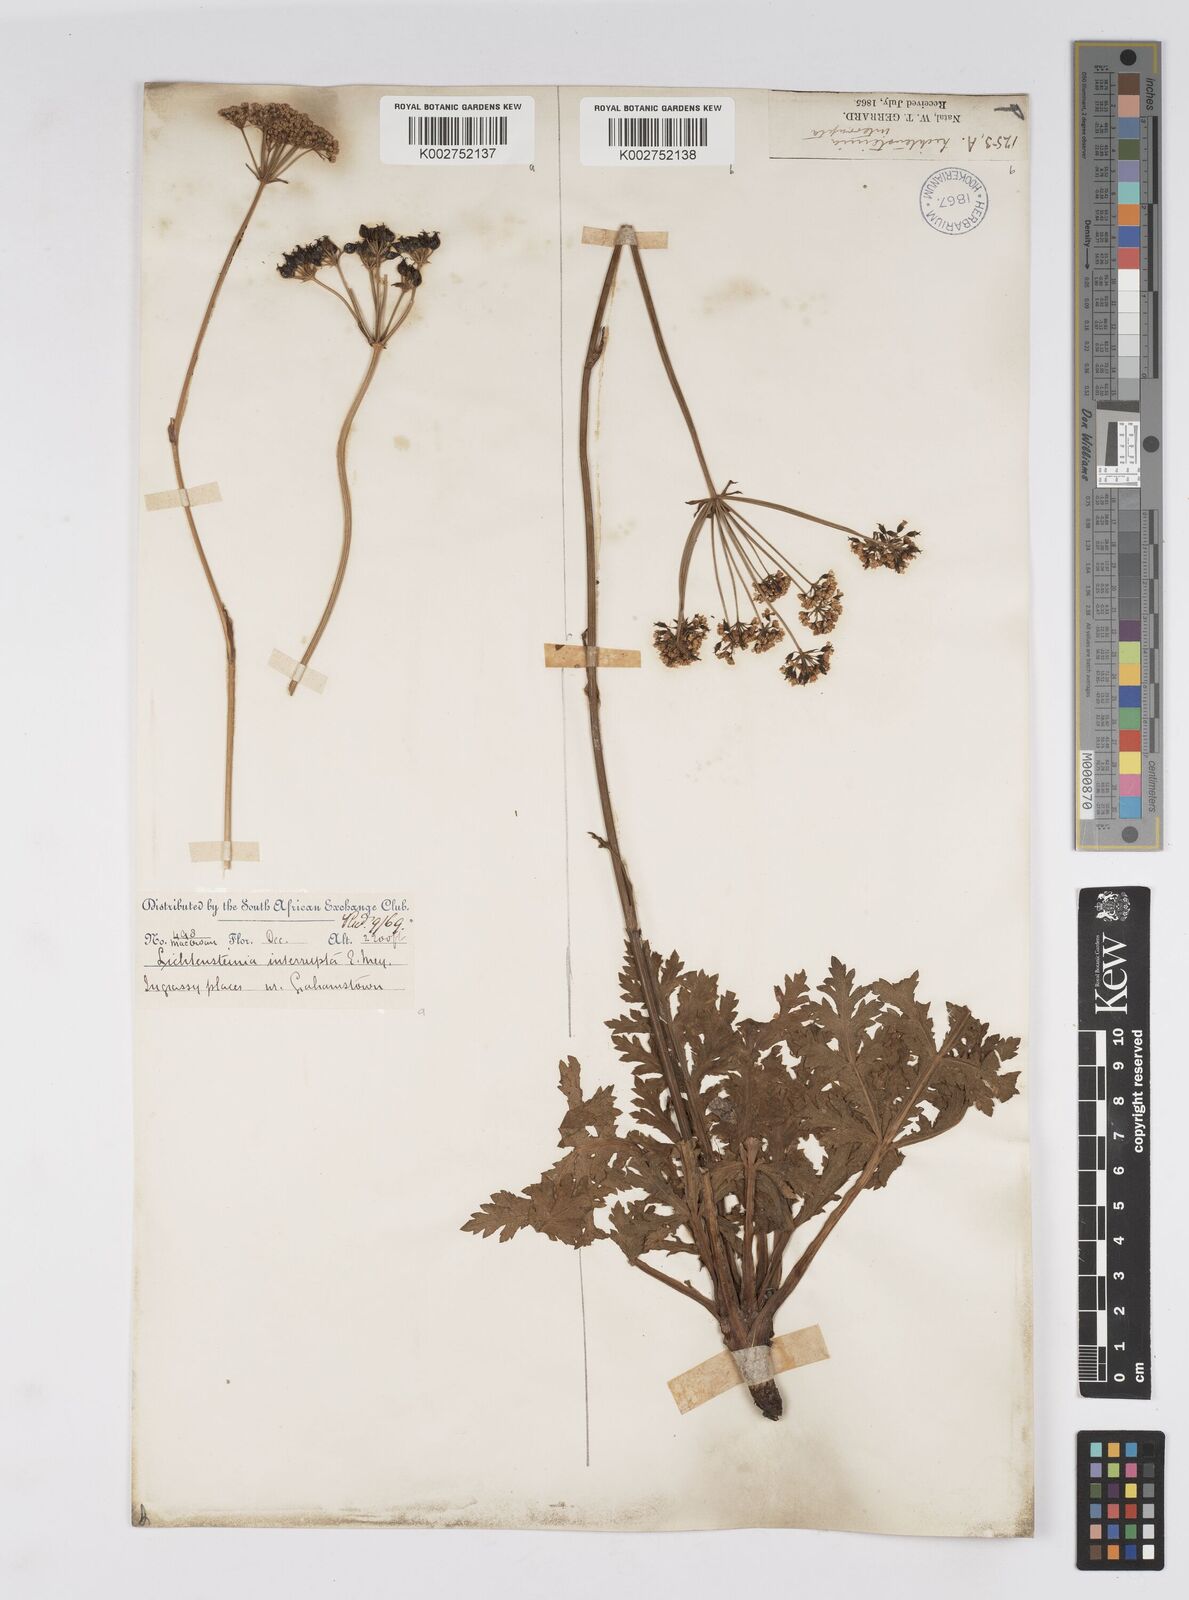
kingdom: Plantae
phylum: Tracheophyta
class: Magnoliopsida
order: Apiales
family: Apiaceae
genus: Lichtensteinia
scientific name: Lichtensteinia interrupta
